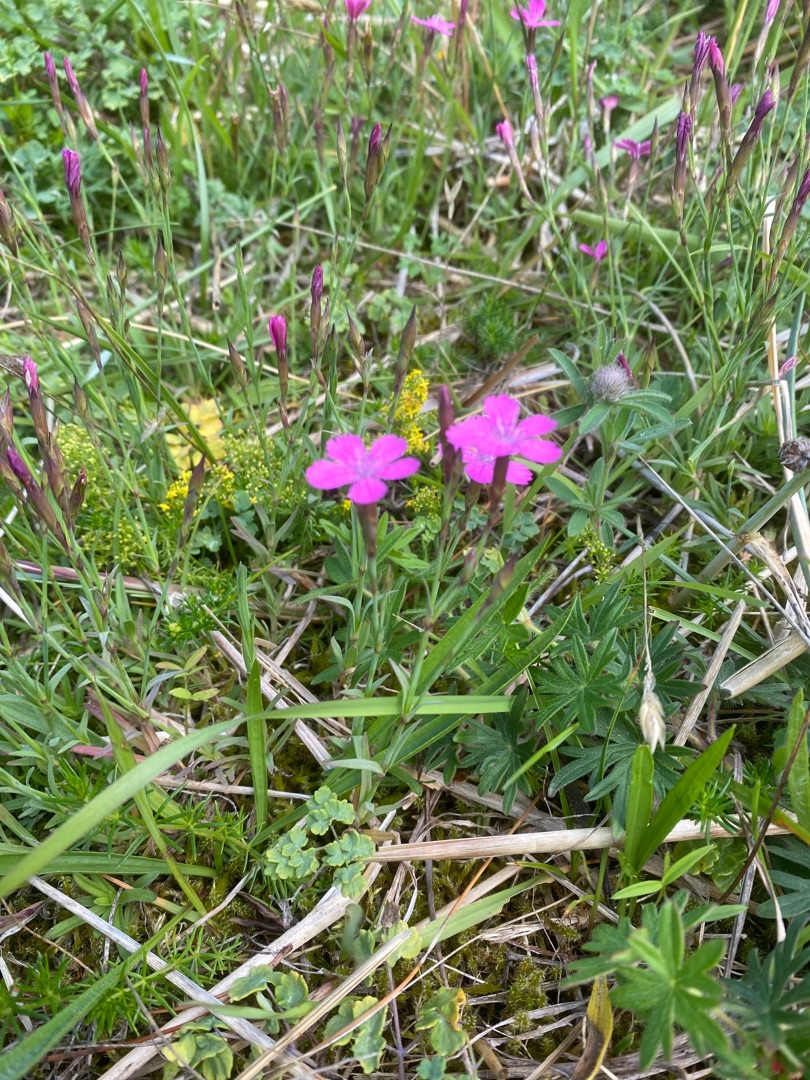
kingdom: Plantae
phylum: Tracheophyta
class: Magnoliopsida
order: Caryophyllales
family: Caryophyllaceae
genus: Dianthus
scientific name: Dianthus deltoides
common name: Bakke-nellike
